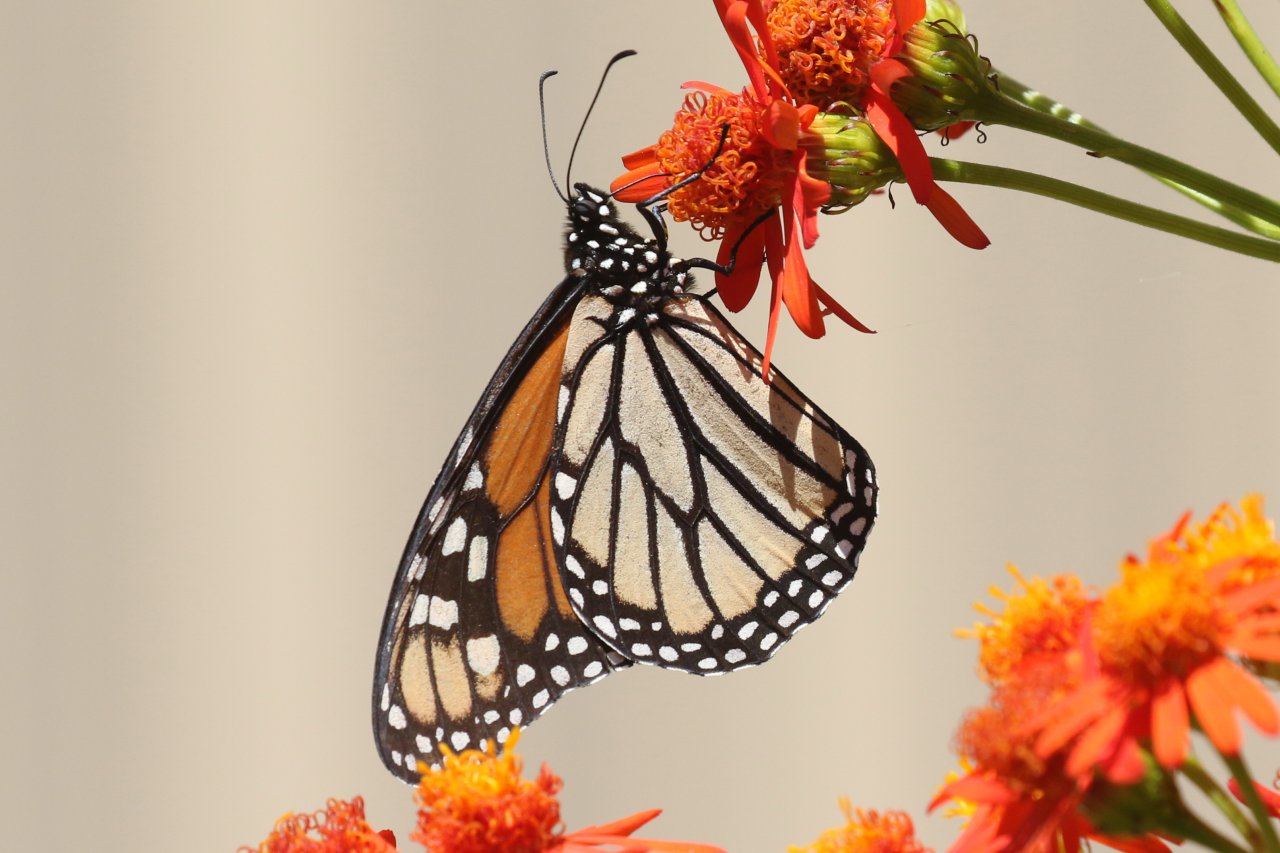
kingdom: Animalia
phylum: Arthropoda
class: Insecta
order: Lepidoptera
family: Nymphalidae
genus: Danaus
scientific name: Danaus plexippus
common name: Monarch
